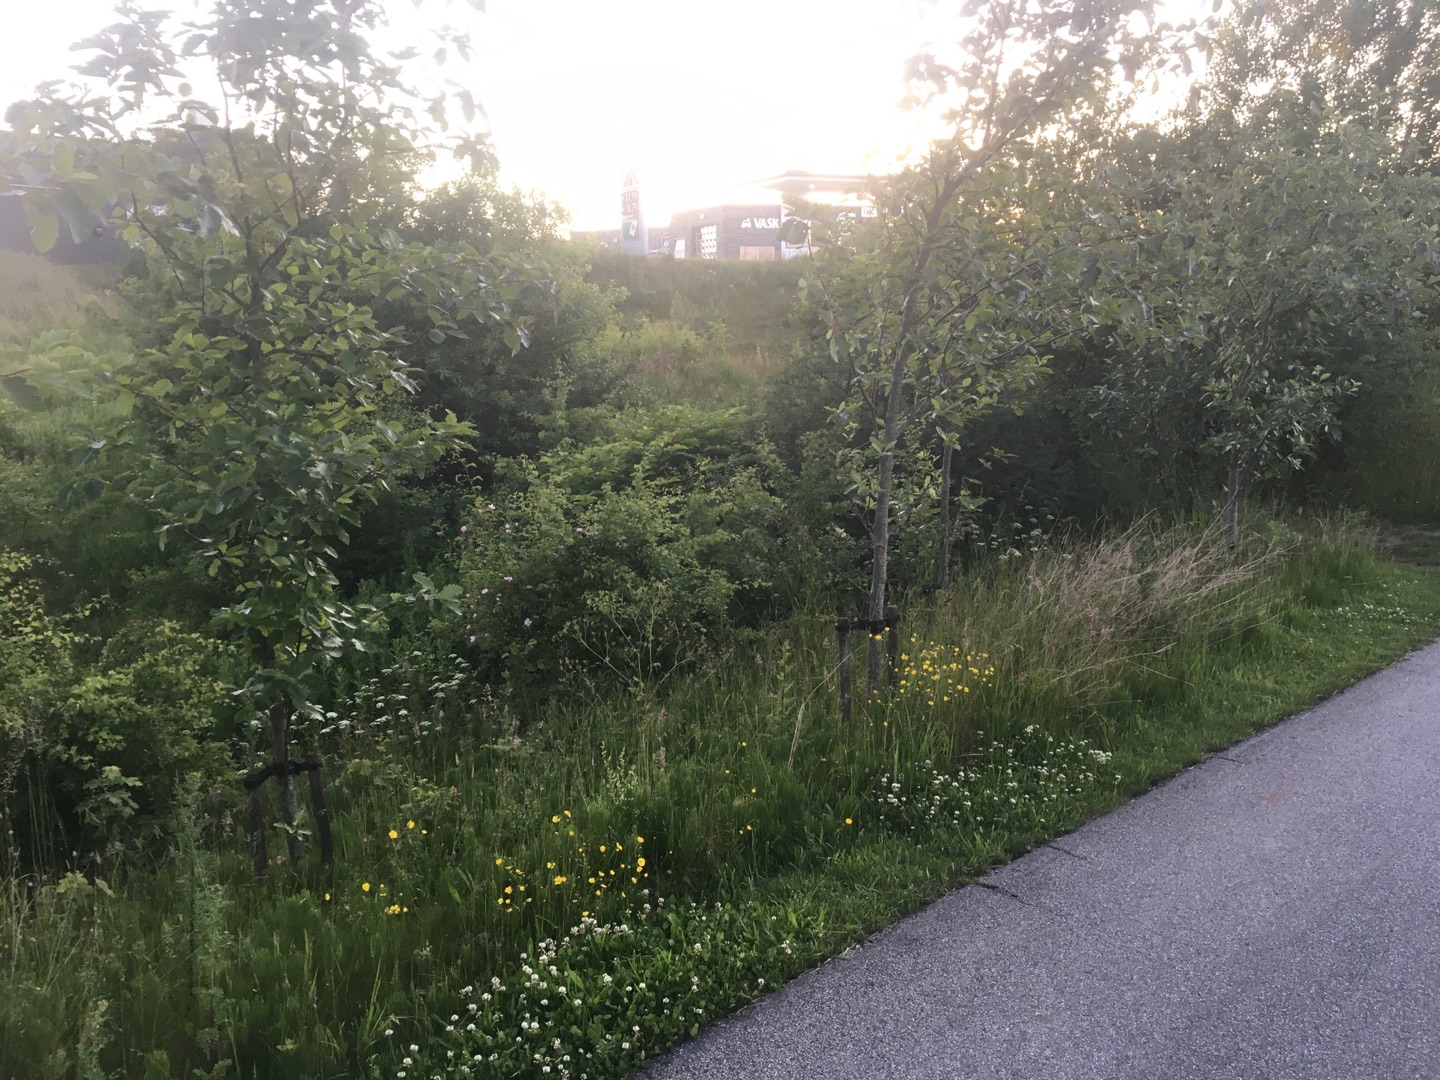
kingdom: Plantae
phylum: Tracheophyta
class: Magnoliopsida
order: Caryophyllales
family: Polygonaceae
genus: Reynoutria
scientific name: Reynoutria
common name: Pileurt (Reynoutria-slægten)
